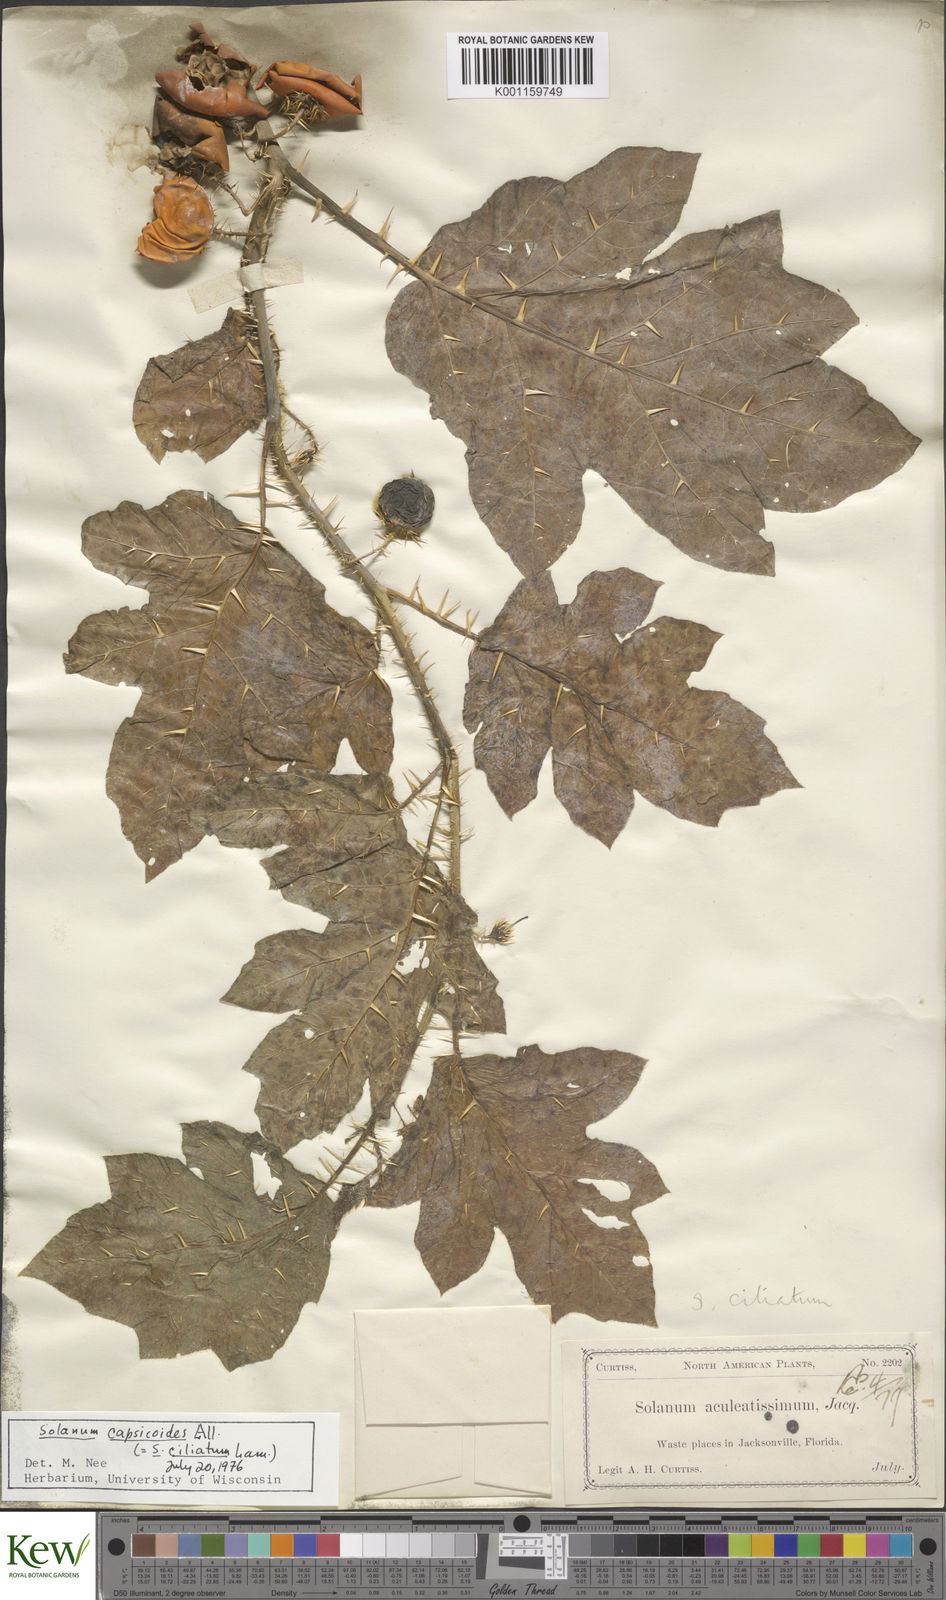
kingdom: Plantae
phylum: Tracheophyta
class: Magnoliopsida
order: Solanales
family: Solanaceae
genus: Solanum
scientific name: Solanum capsicoides
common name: Cockroach berry
